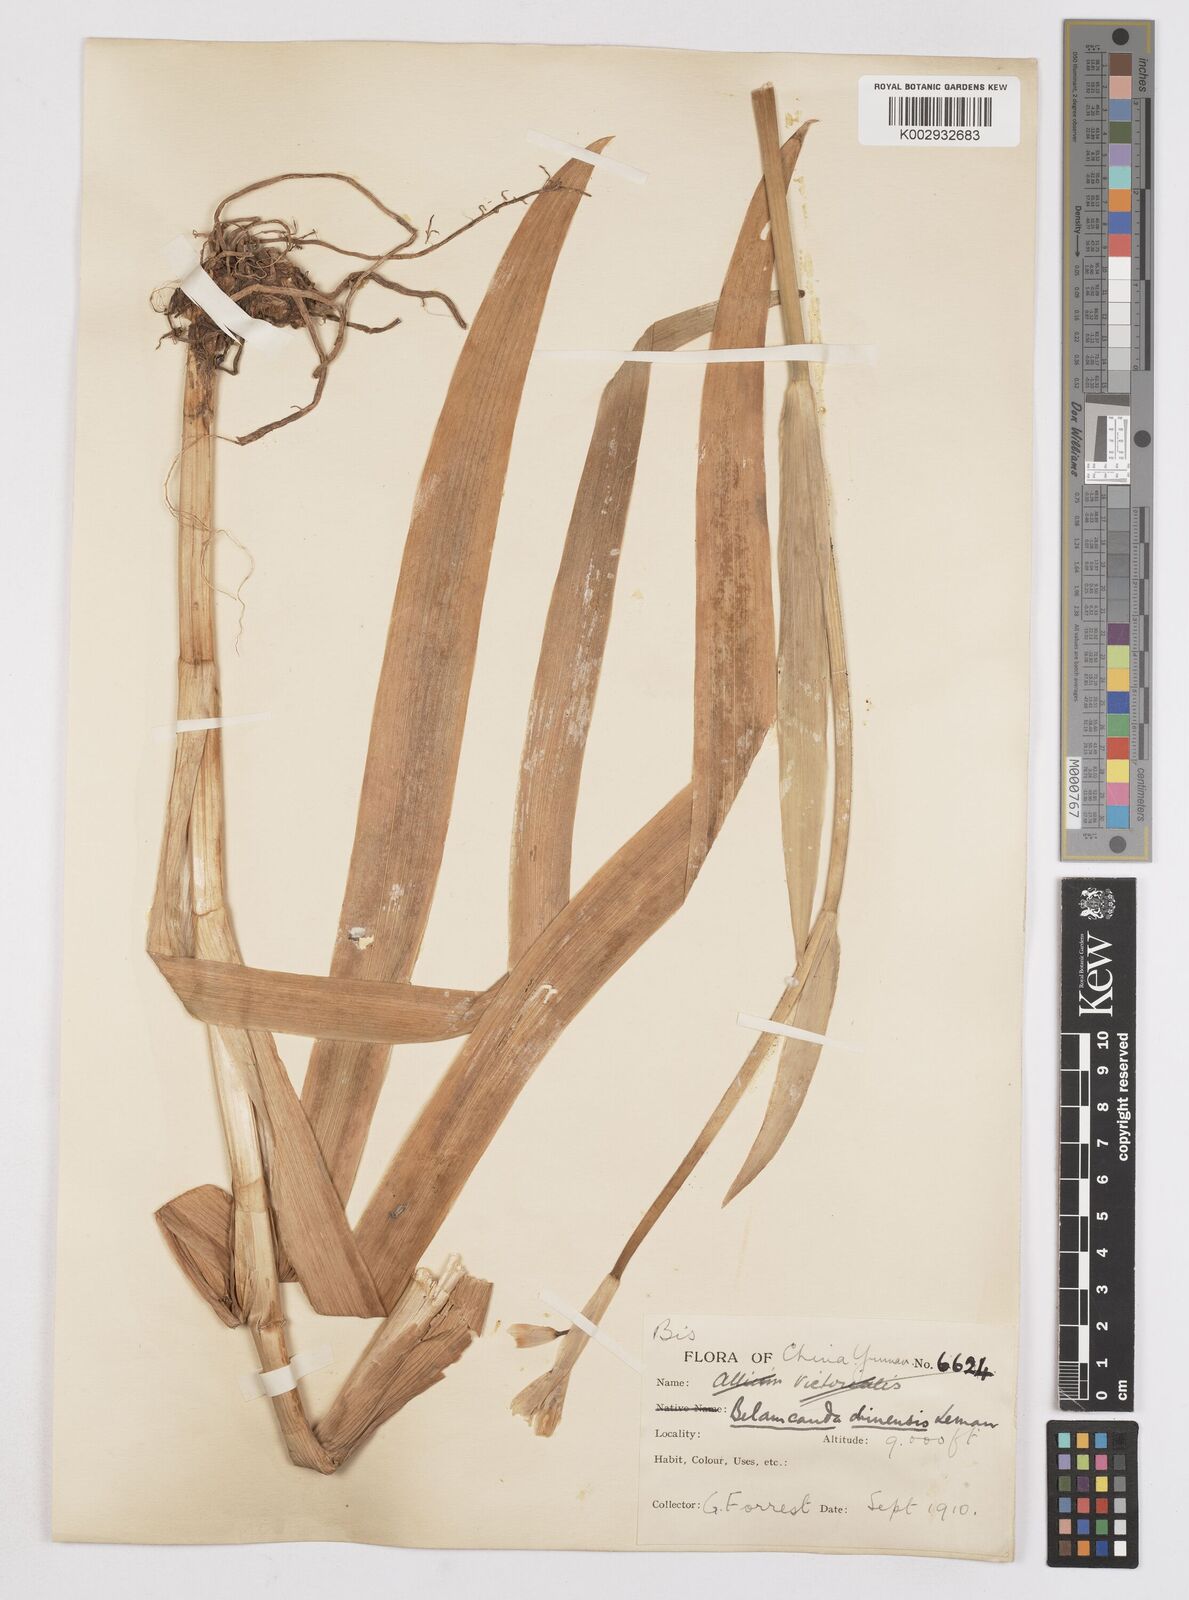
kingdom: Plantae
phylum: Tracheophyta
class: Liliopsida
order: Asparagales
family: Iridaceae
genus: Iris
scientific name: Iris
